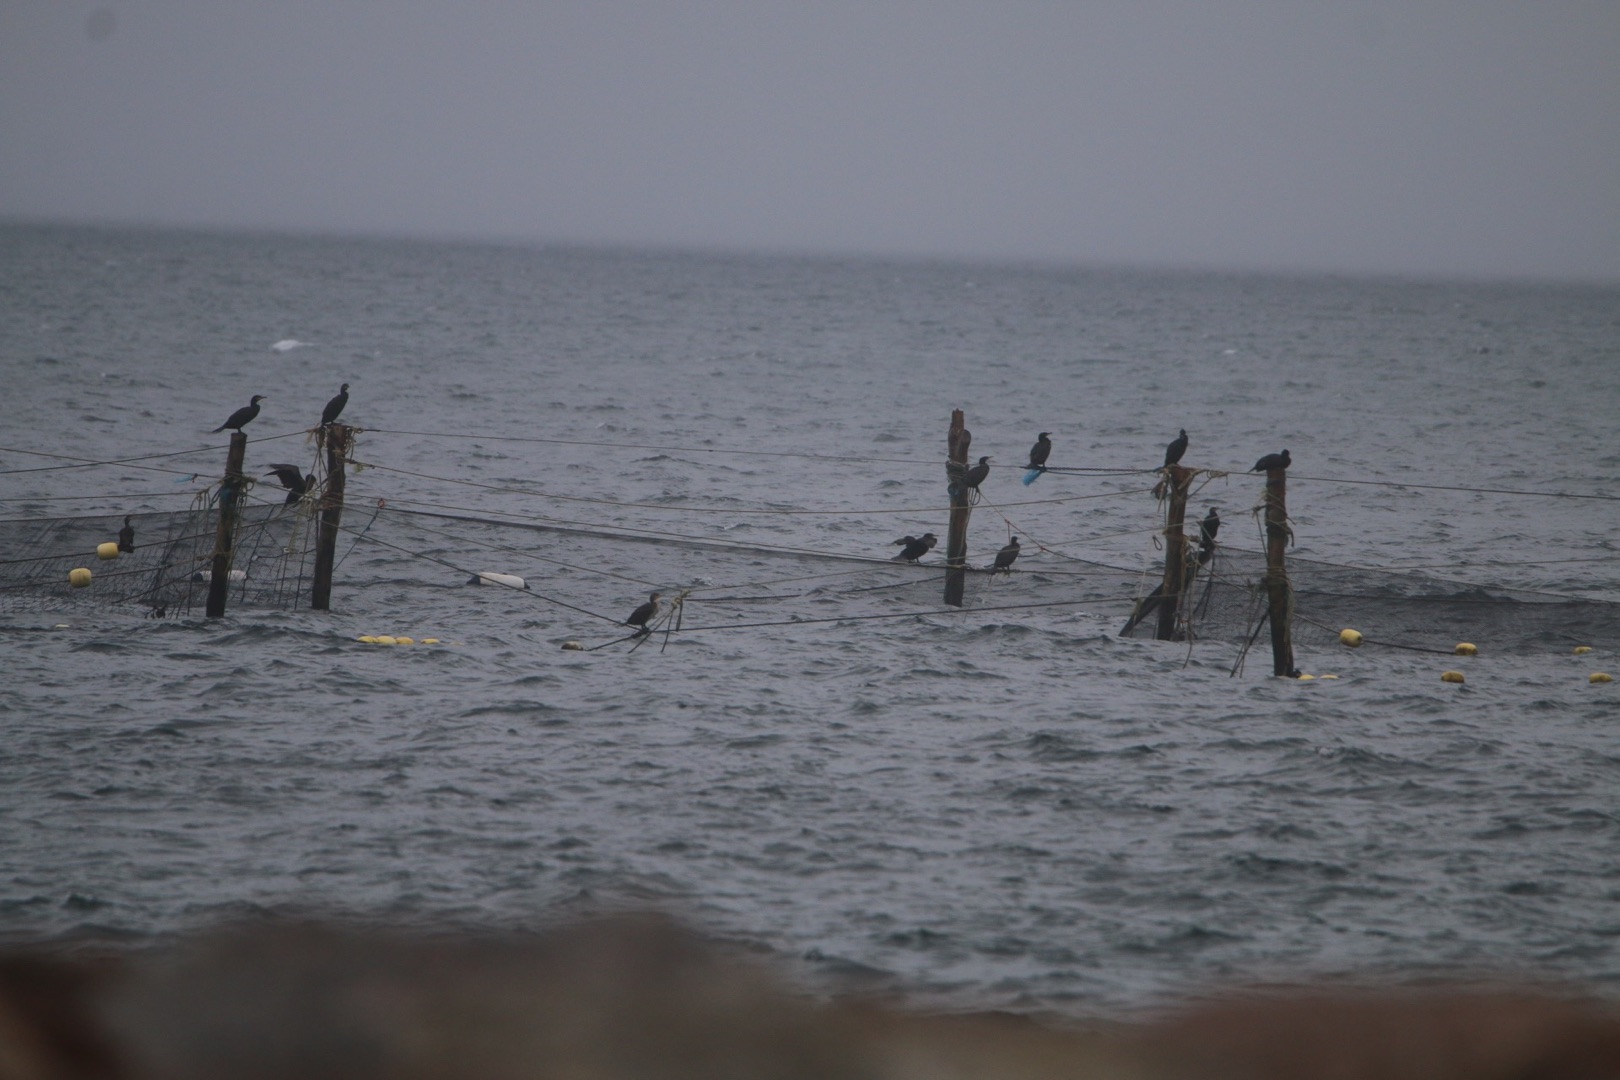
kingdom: Animalia
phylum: Chordata
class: Aves
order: Suliformes
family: Phalacrocoracidae
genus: Phalacrocorax
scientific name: Phalacrocorax carbo
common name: Skarv
